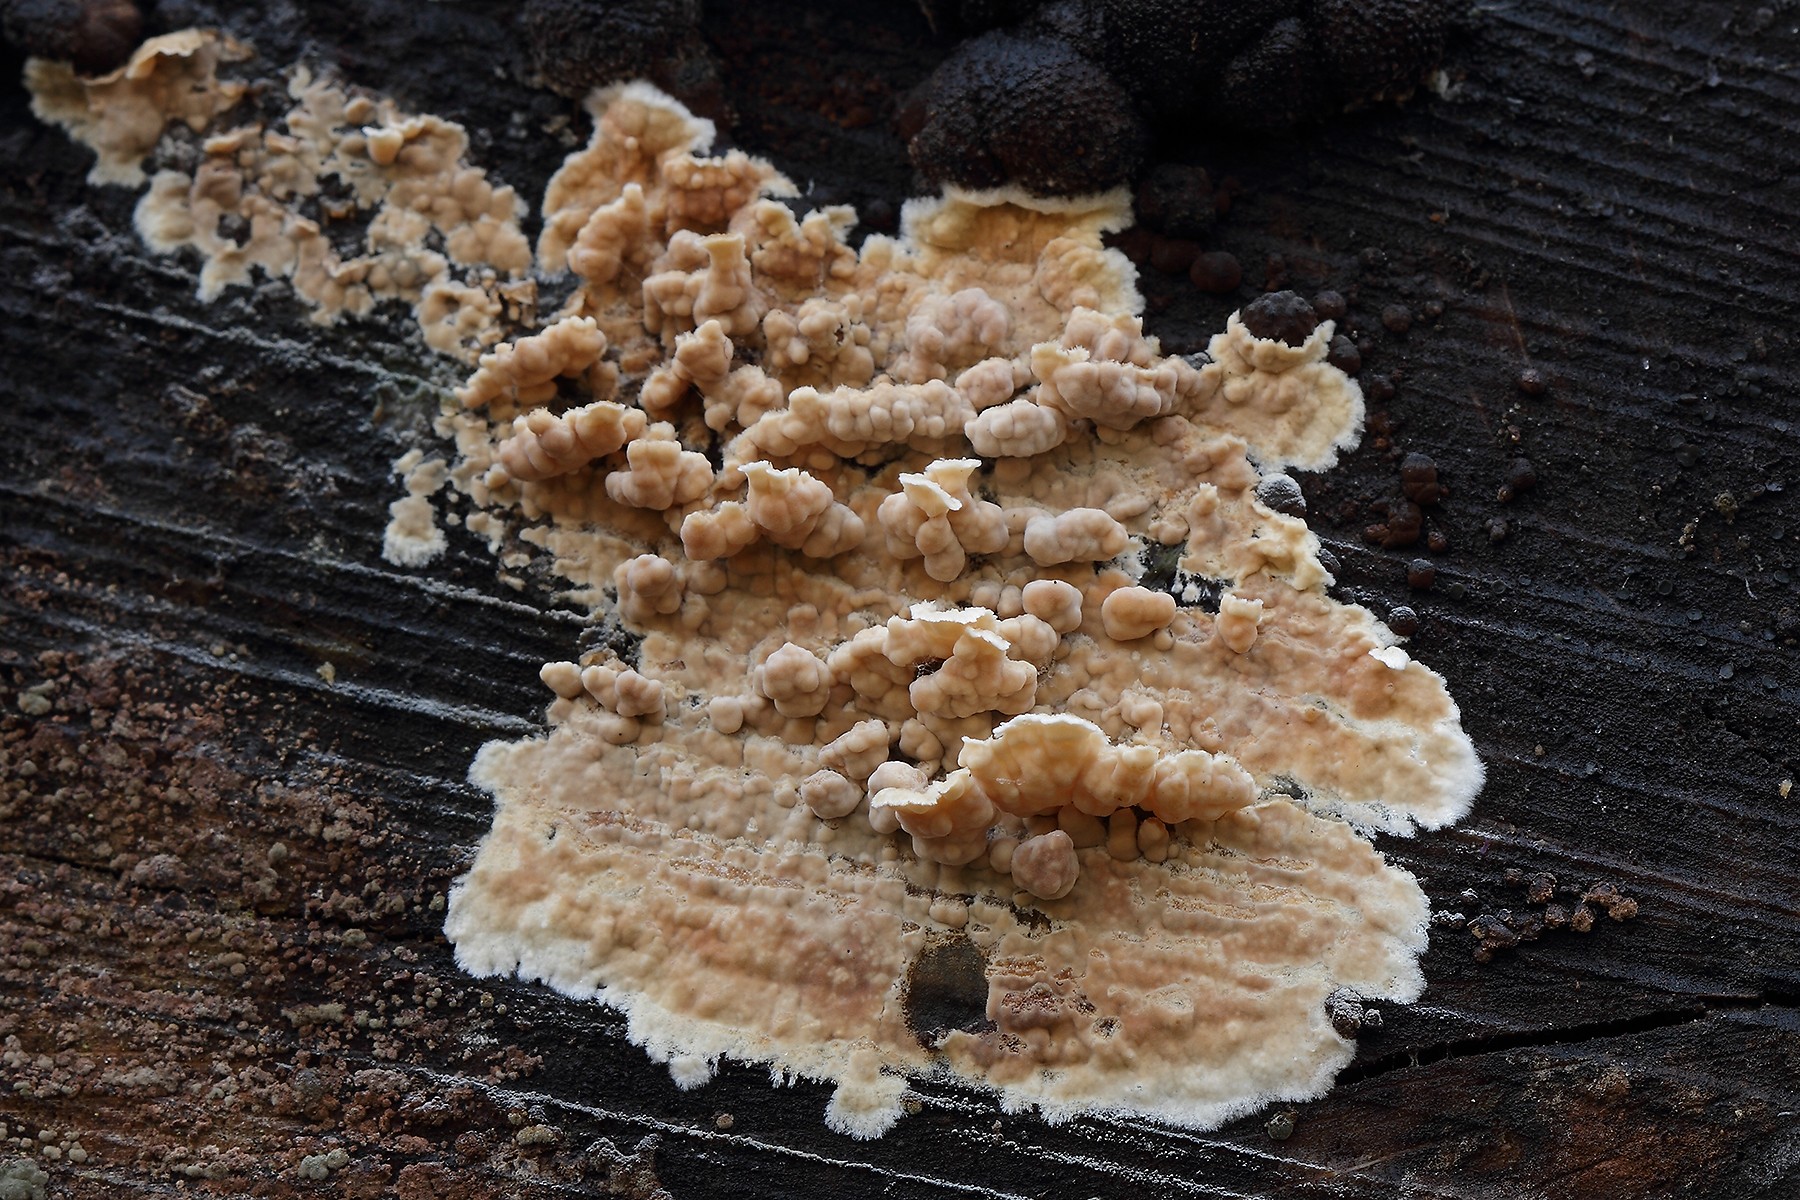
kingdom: Fungi
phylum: Basidiomycota
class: Agaricomycetes
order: Agaricales
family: Physalacriaceae
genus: Cylindrobasidium
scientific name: Cylindrobasidium evolvens
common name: sprækkehinde
